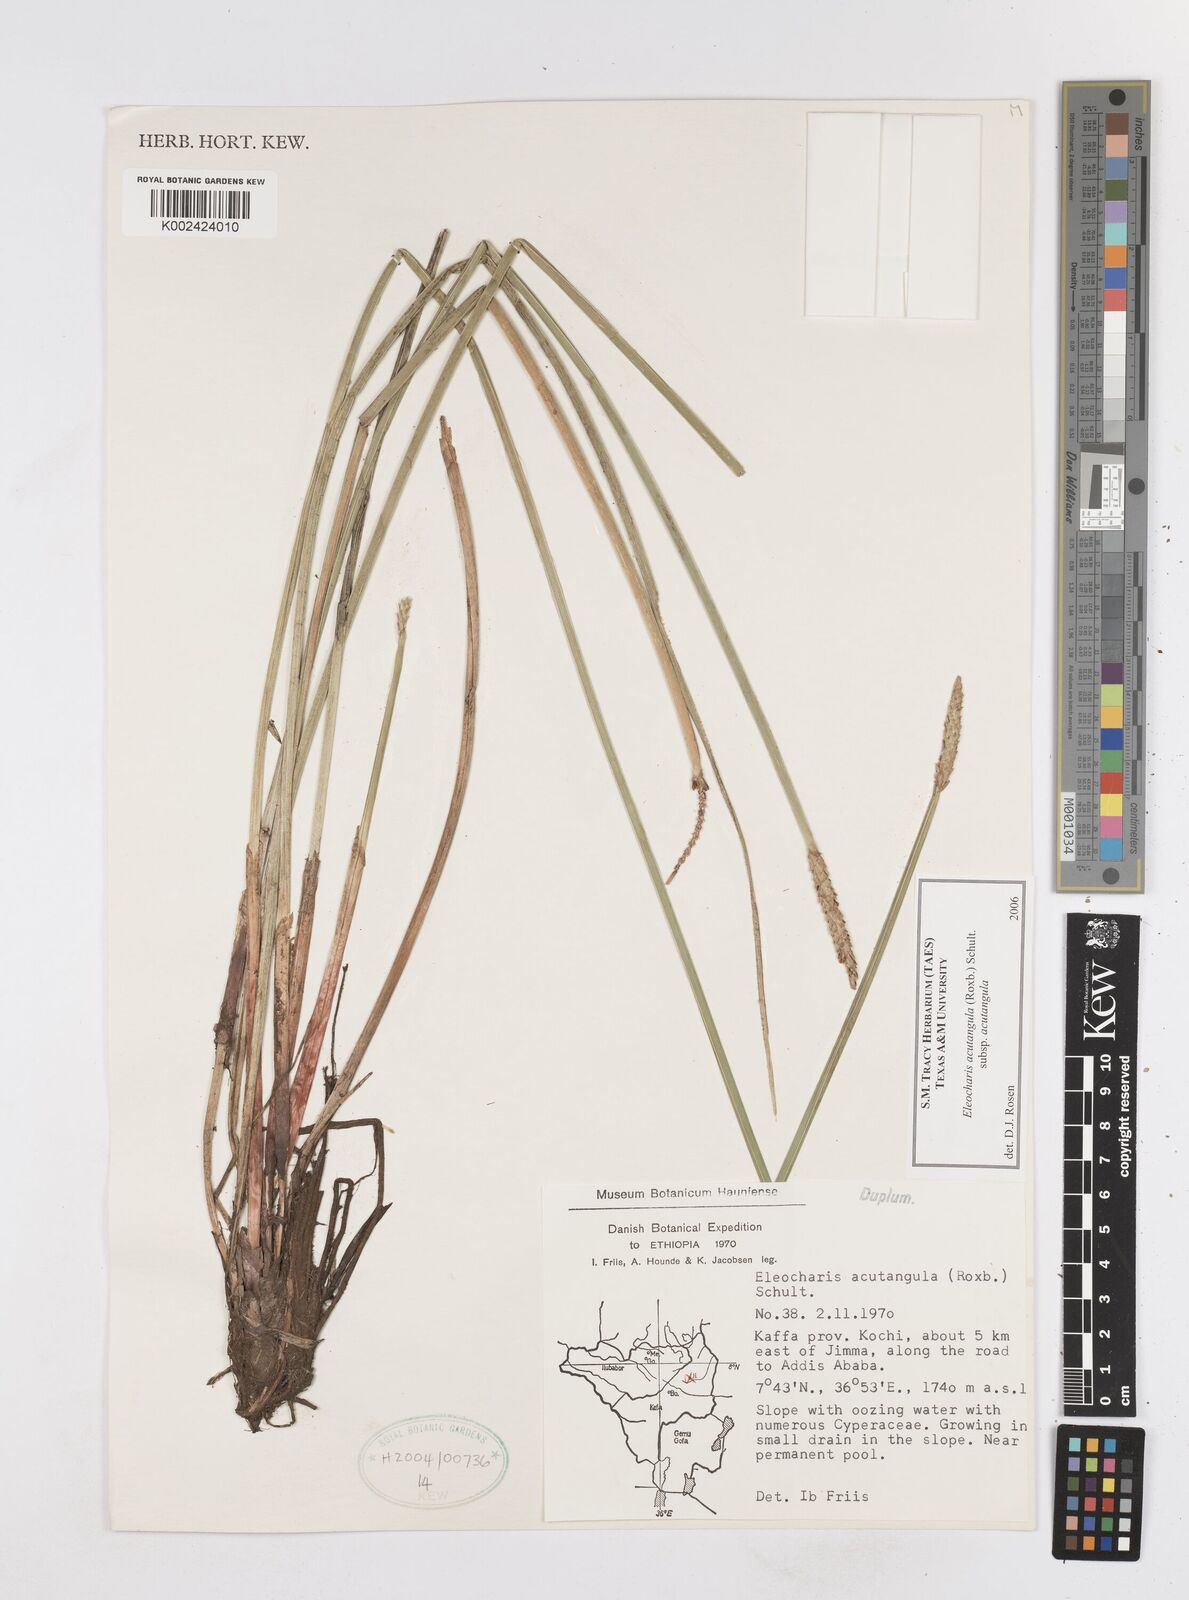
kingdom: Plantae
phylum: Tracheophyta
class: Liliopsida
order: Poales
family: Cyperaceae
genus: Eleocharis
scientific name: Eleocharis acutangula
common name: Acute spikerush
